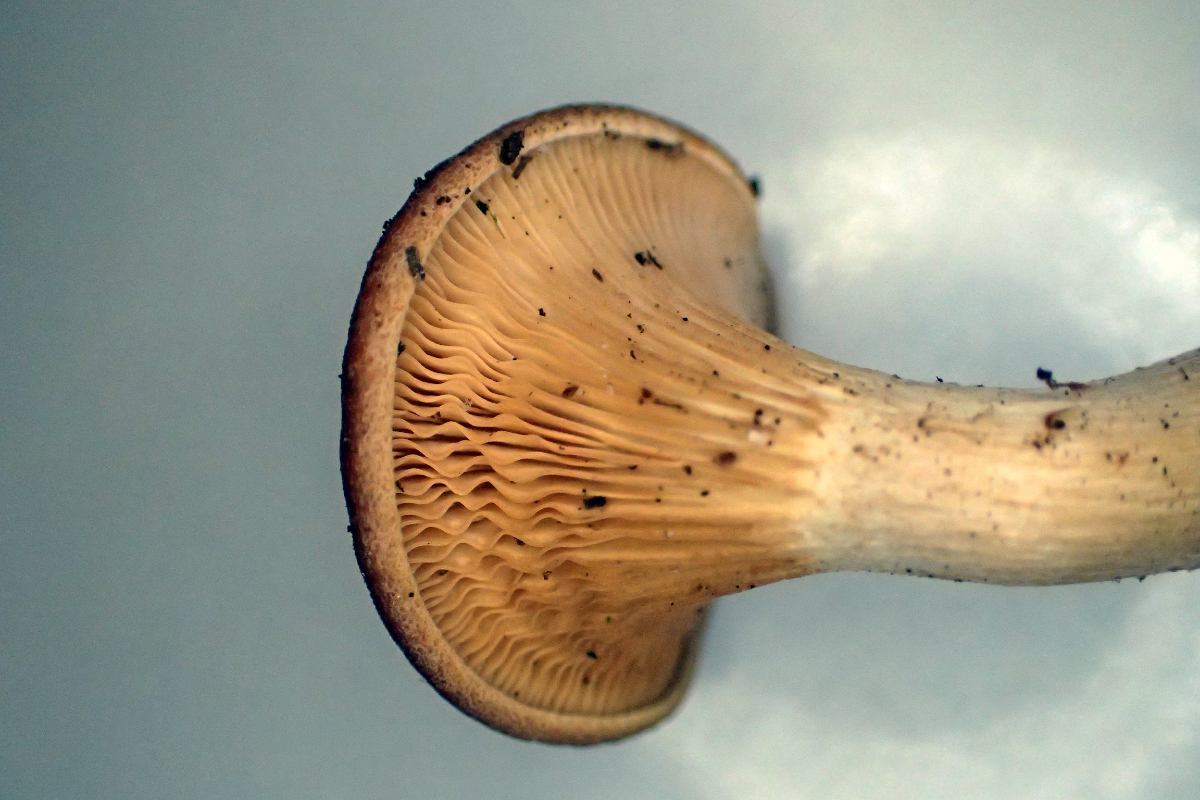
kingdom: Fungi
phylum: Basidiomycota
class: Agaricomycetes
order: Agaricales
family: Tricholomataceae
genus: Paralepista
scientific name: Paralepista gilva
